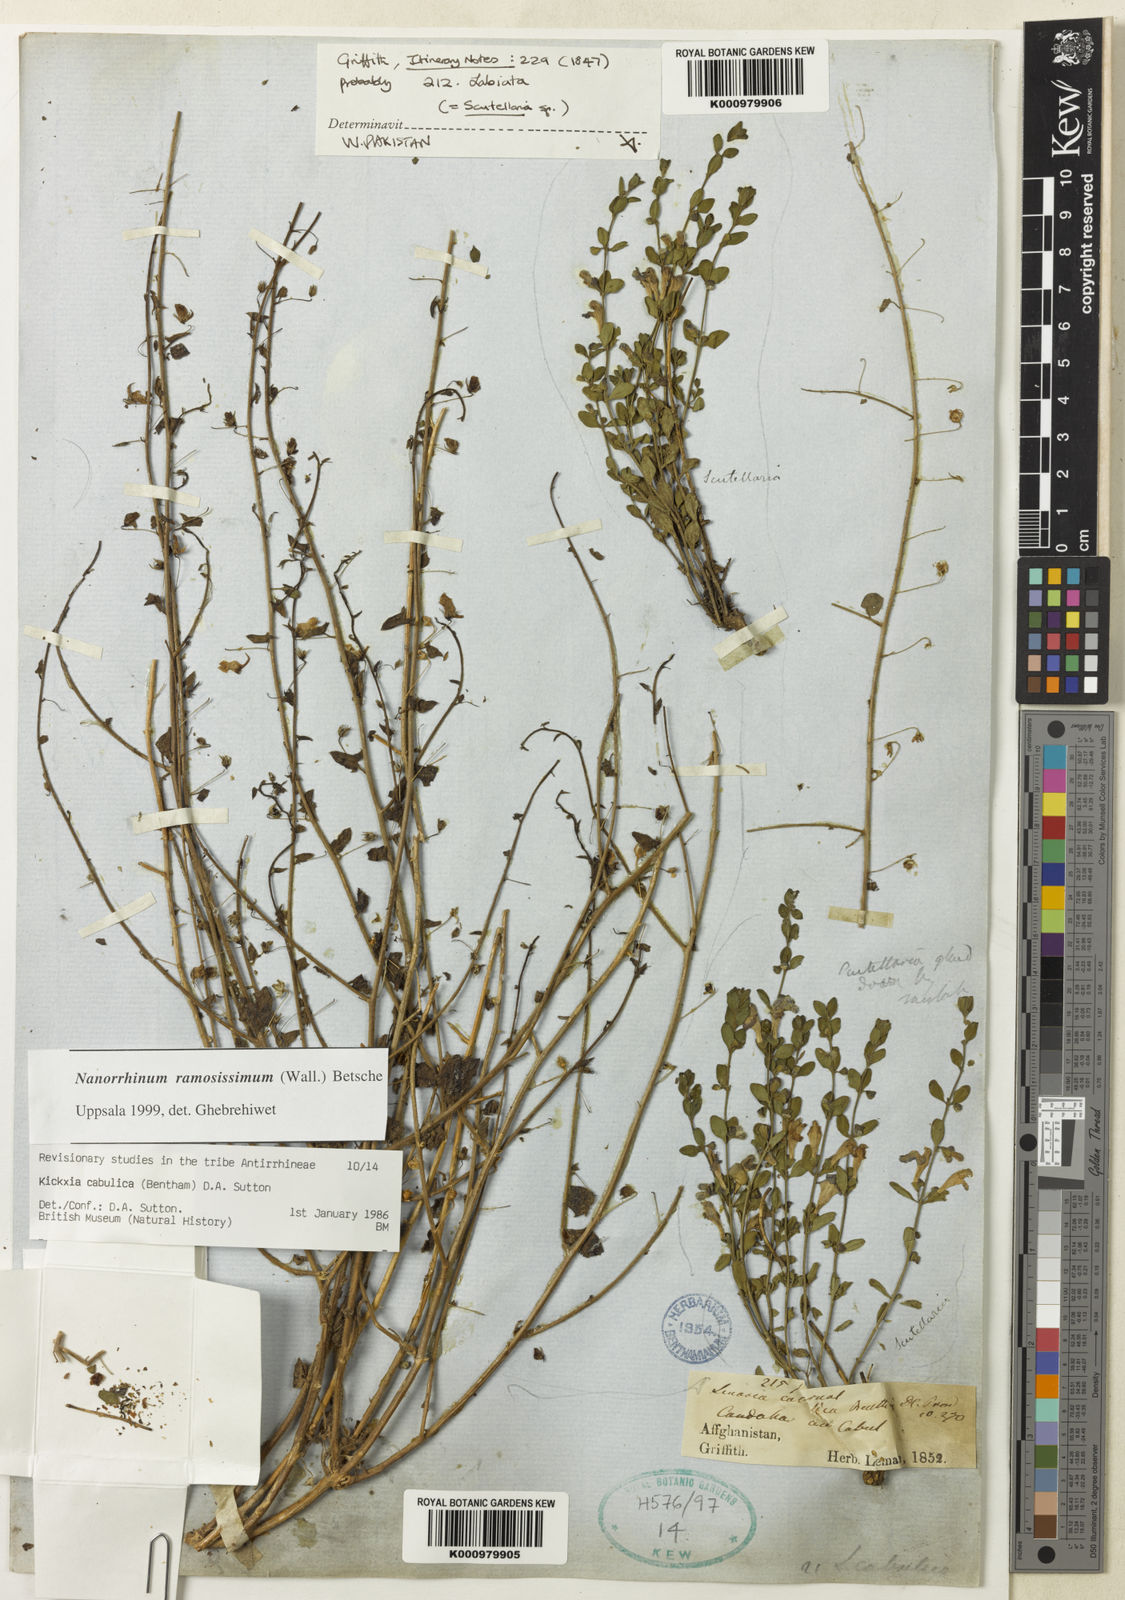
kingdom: Plantae
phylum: Tracheophyta
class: Magnoliopsida
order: Lamiales
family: Plantaginaceae
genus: Nanorrhinum
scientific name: Nanorrhinum ramosissimum
